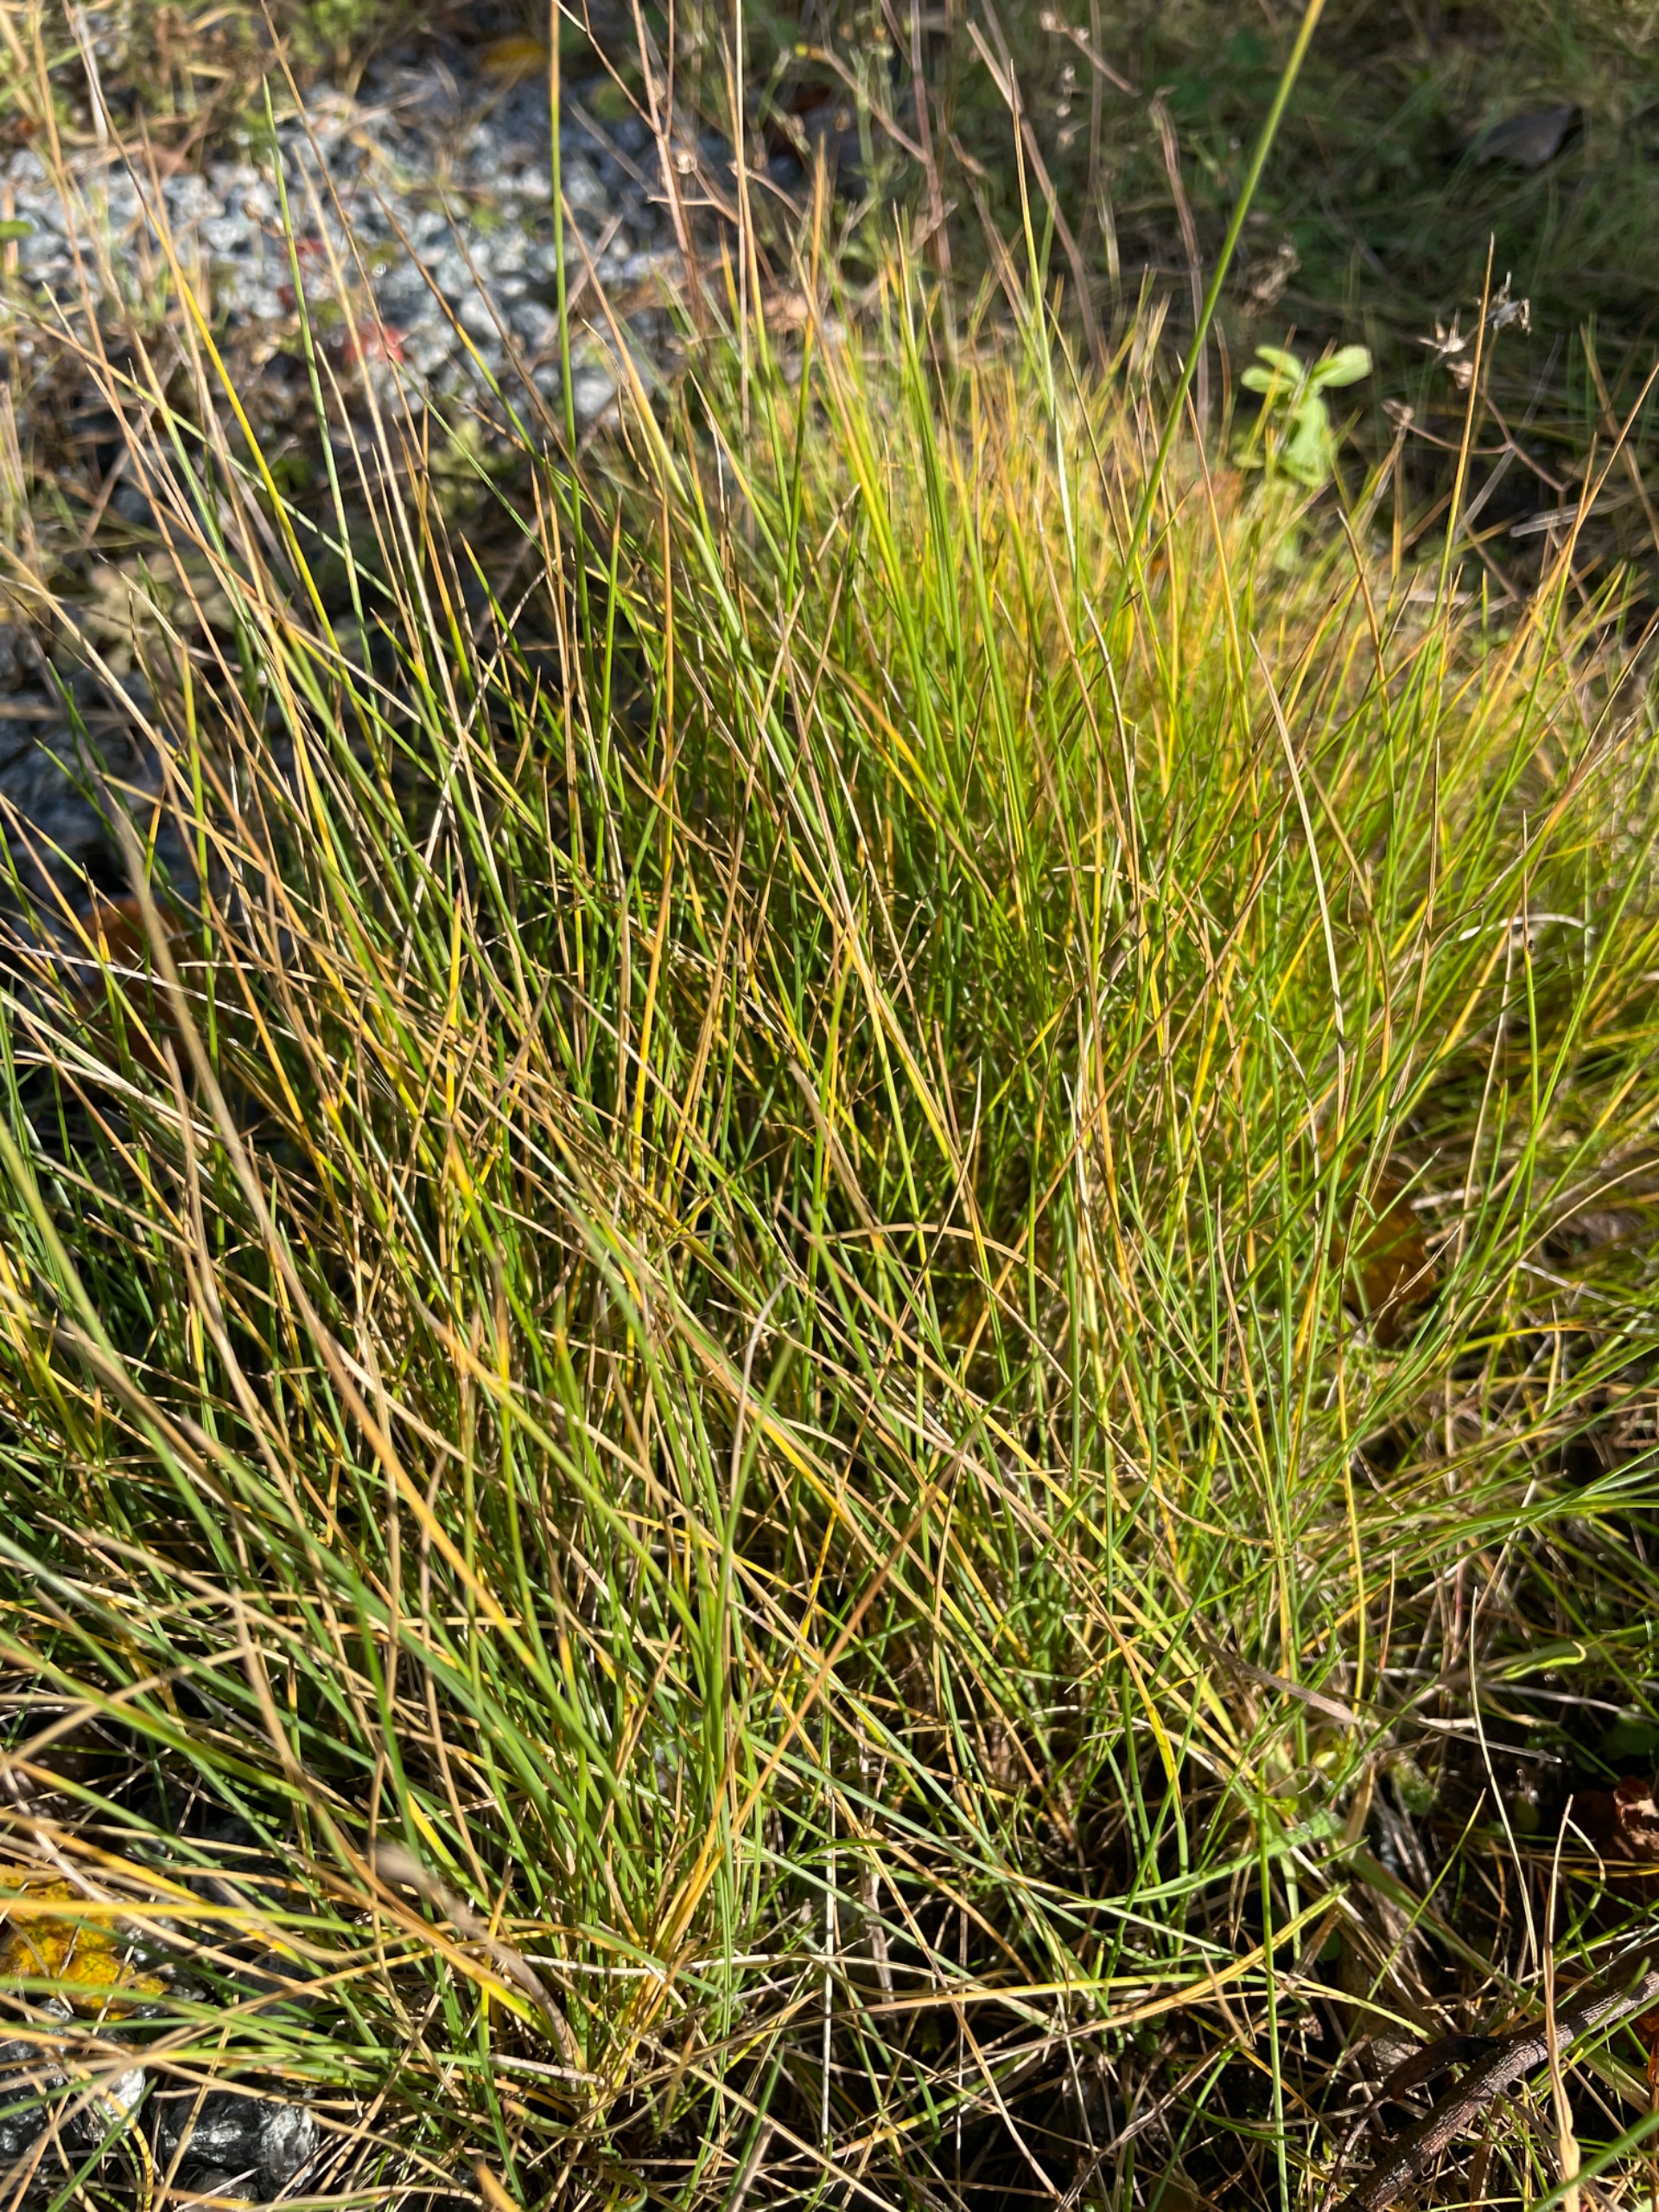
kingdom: Plantae
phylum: Tracheophyta
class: Liliopsida
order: Poales
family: Poaceae
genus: Festuca
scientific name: Festuca rubra
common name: Rød svingel
